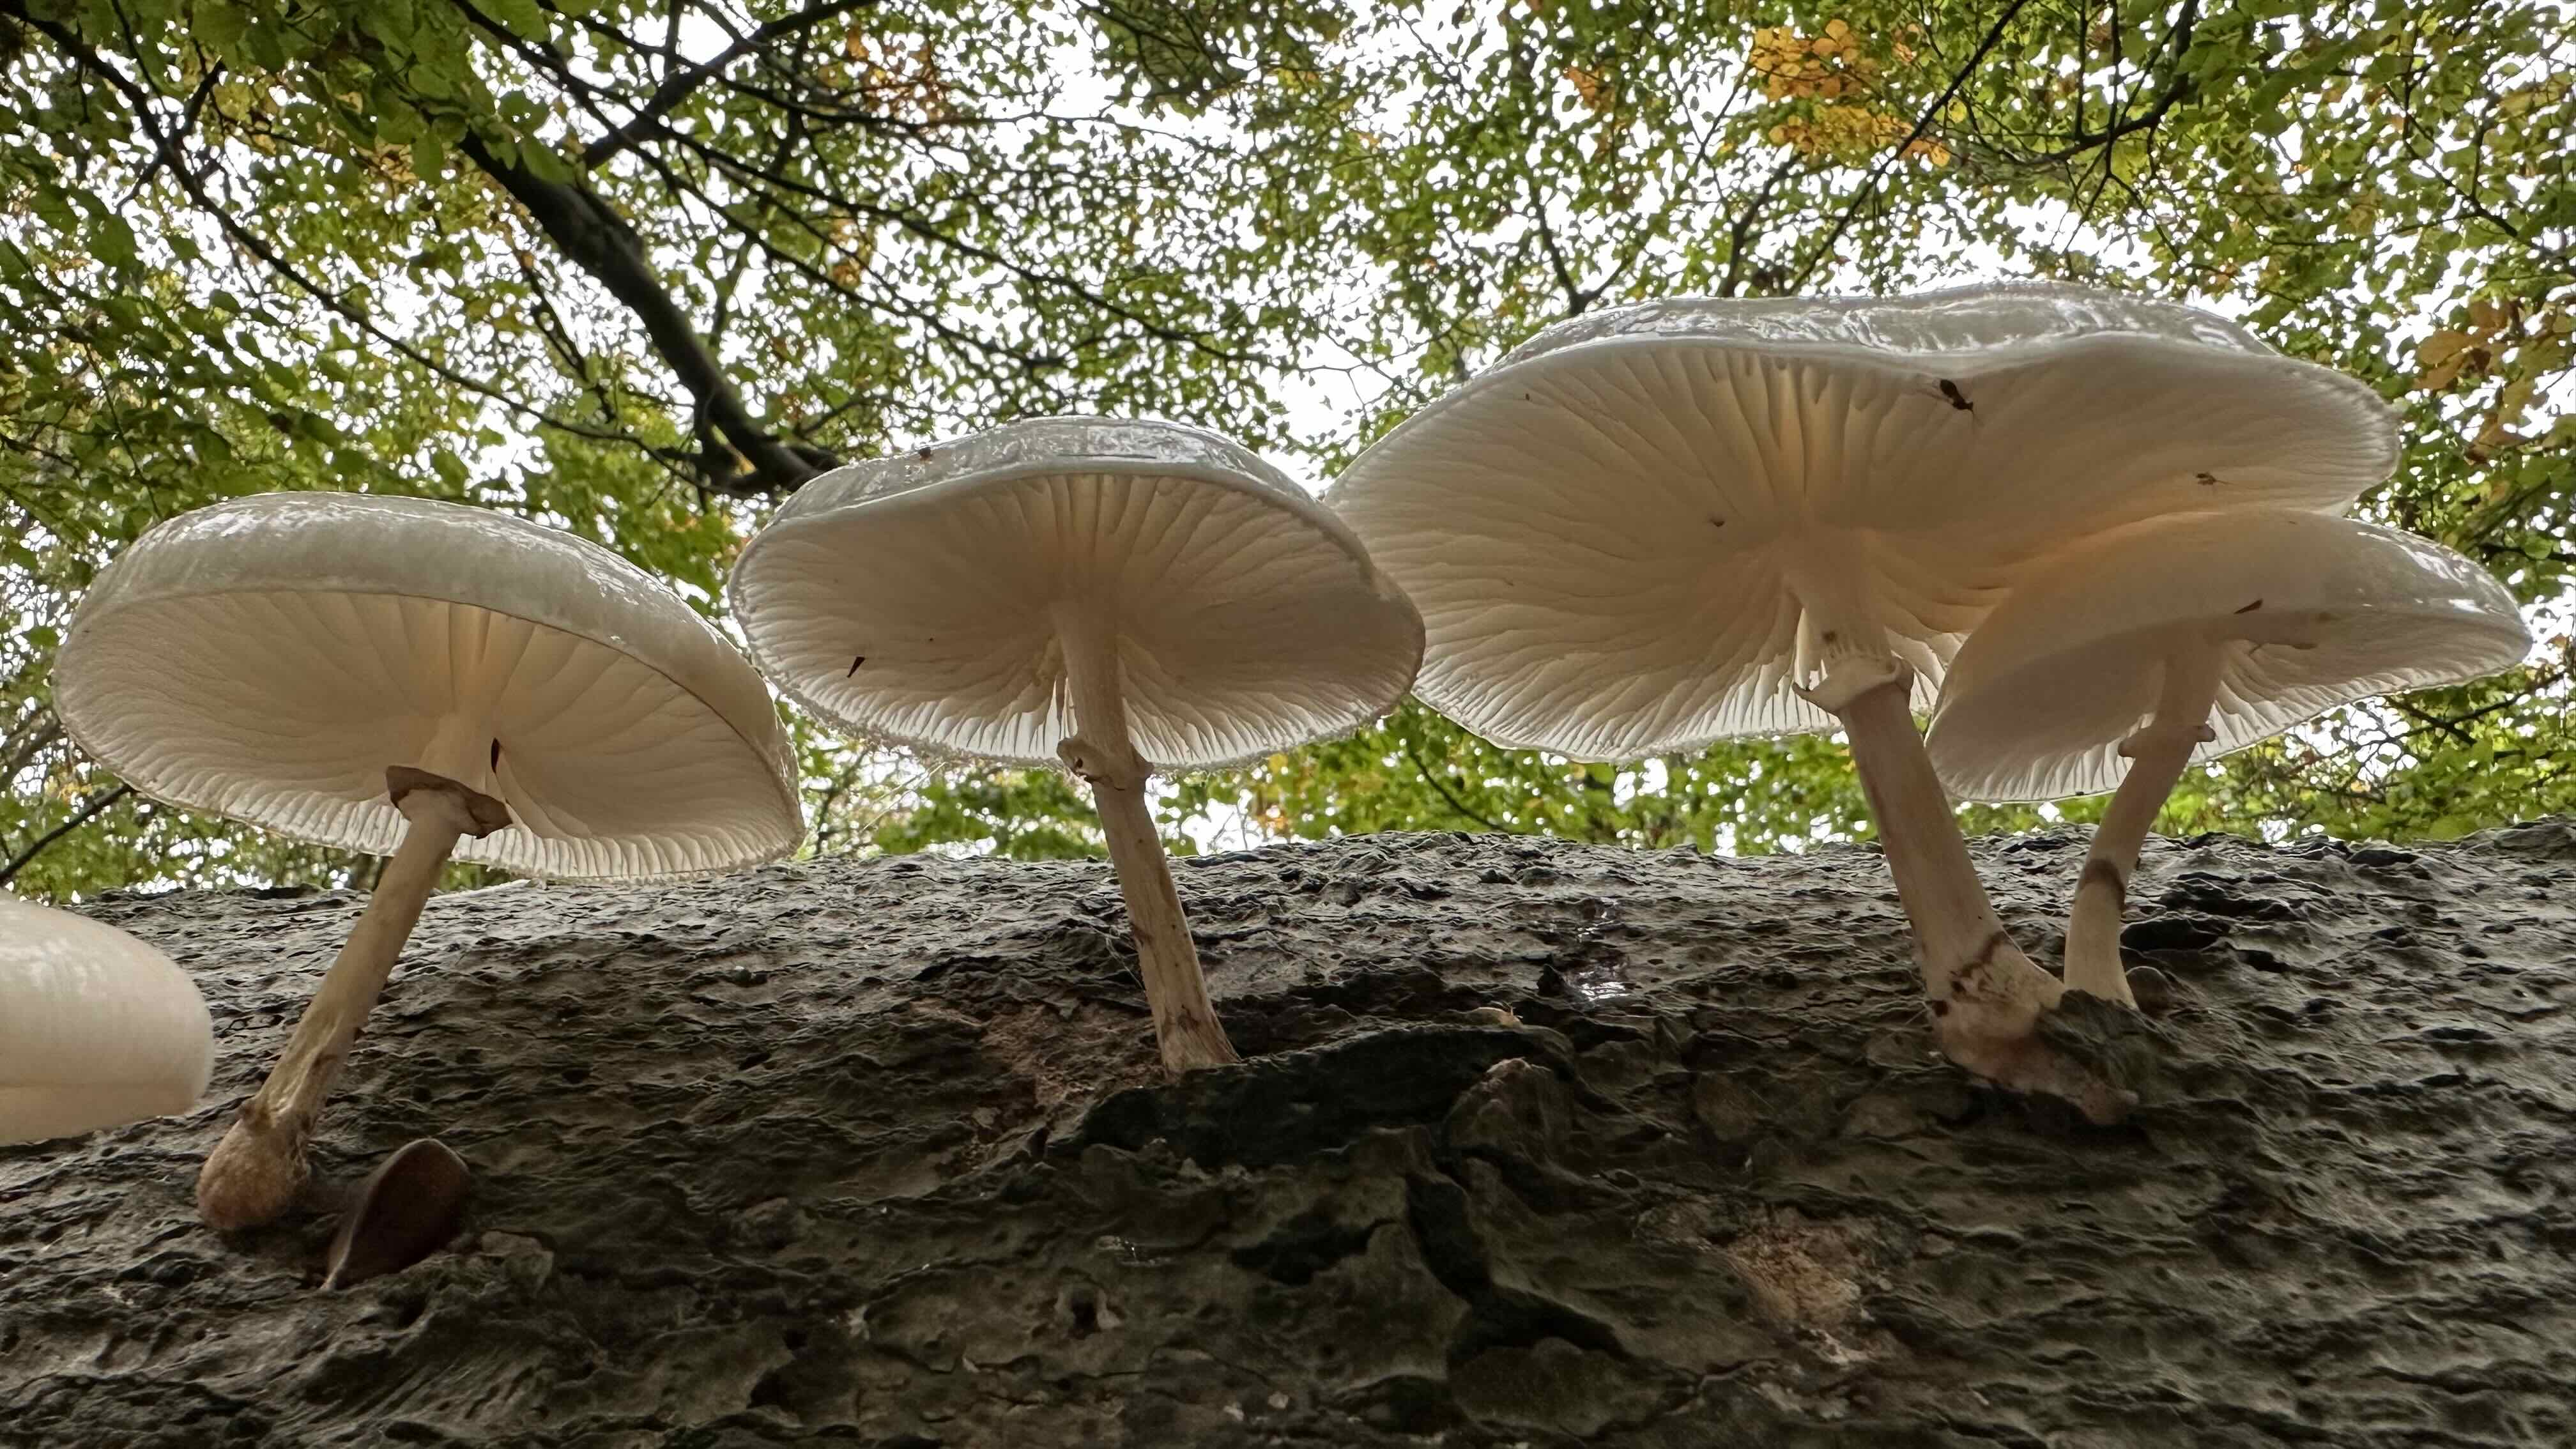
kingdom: Fungi
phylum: Basidiomycota
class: Agaricomycetes
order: Agaricales
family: Physalacriaceae
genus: Mucidula
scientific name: Mucidula mucida
